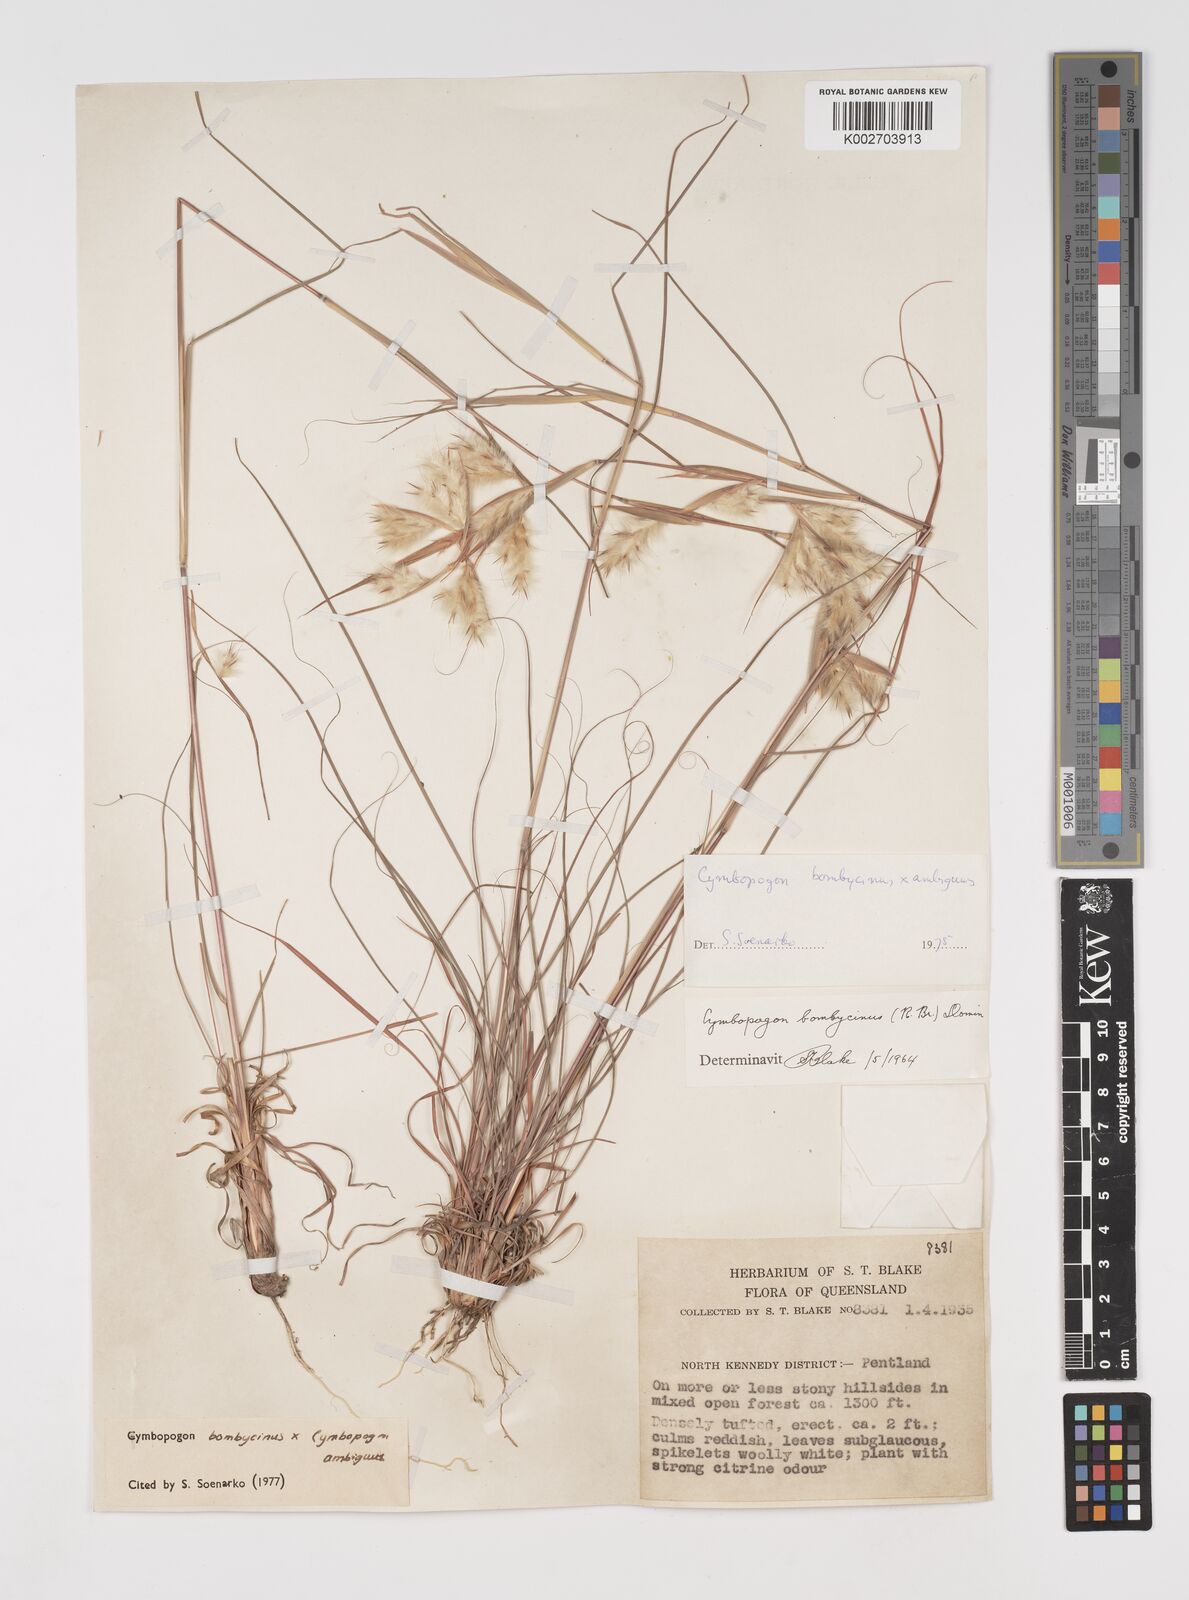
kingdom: Plantae
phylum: Tracheophyta
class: Liliopsida
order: Poales
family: Poaceae
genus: Cymbopogon
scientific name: Cymbopogon bombycinus
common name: Citronella grass
